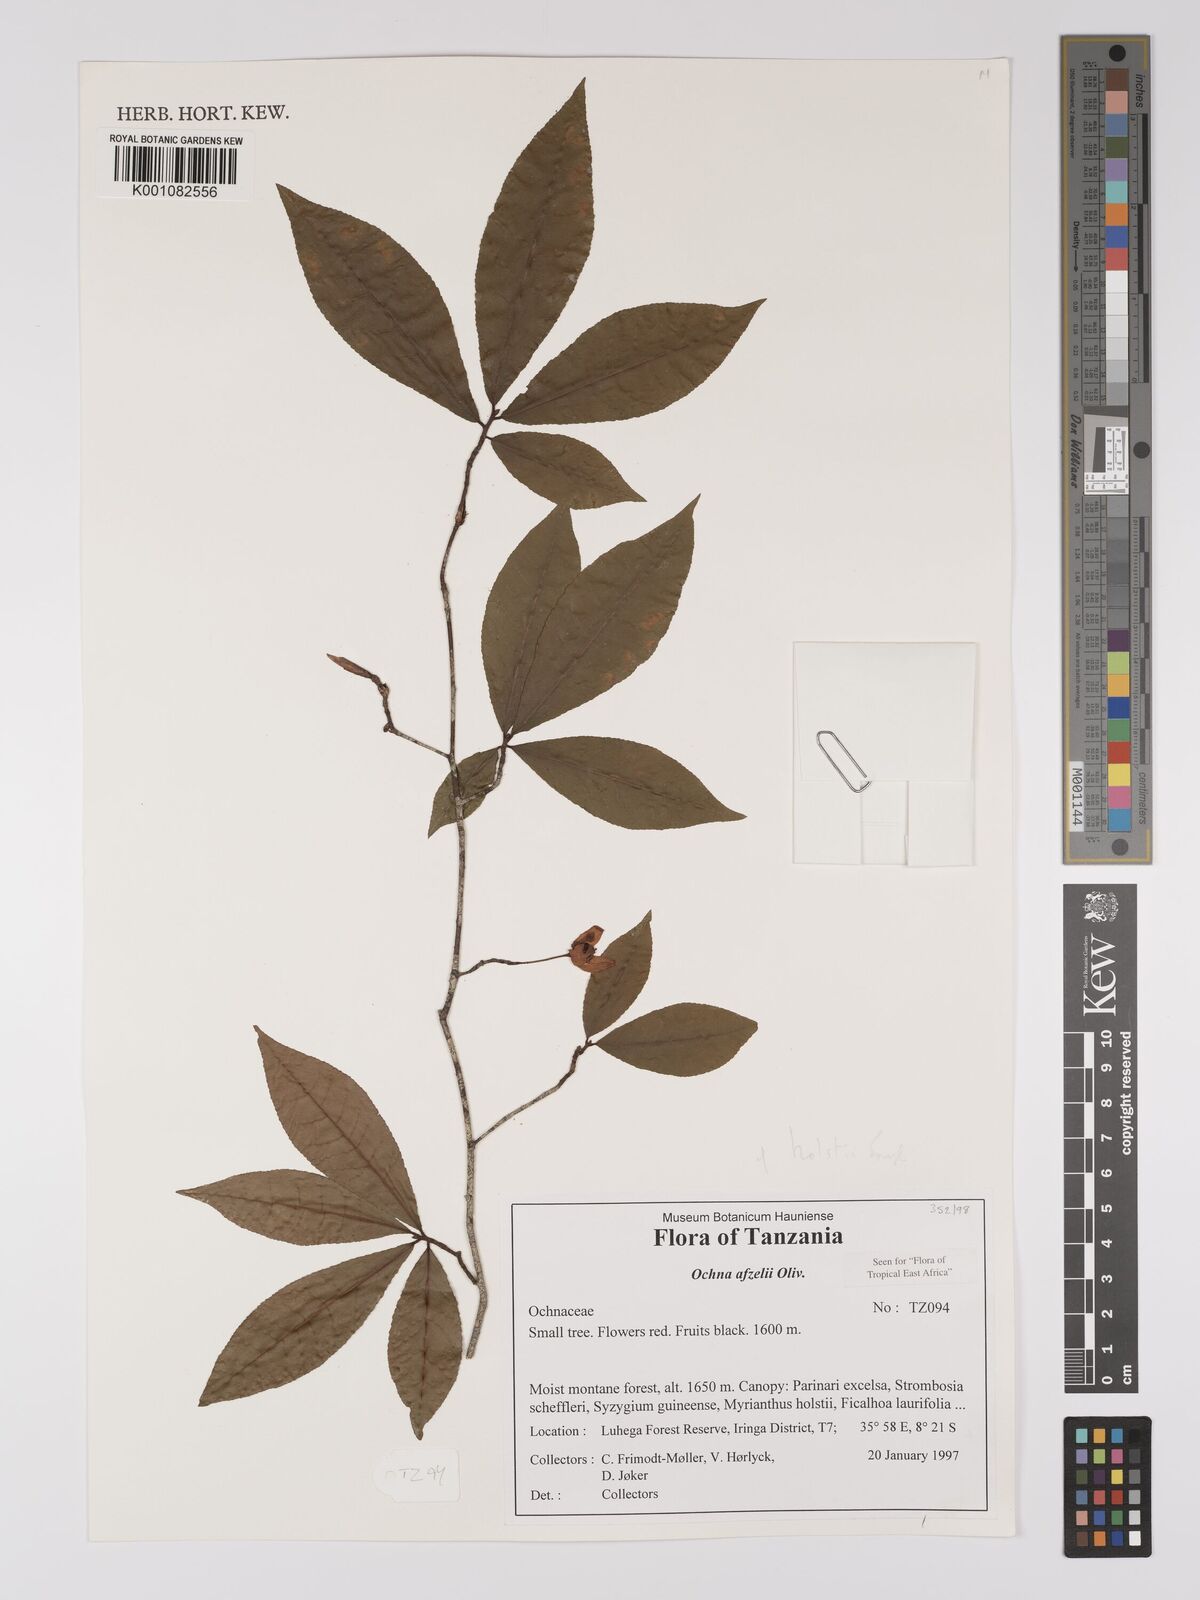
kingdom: Plantae
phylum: Tracheophyta
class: Magnoliopsida
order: Malpighiales
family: Ochnaceae
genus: Ochna
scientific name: Ochna holstii
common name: Red ironwood
